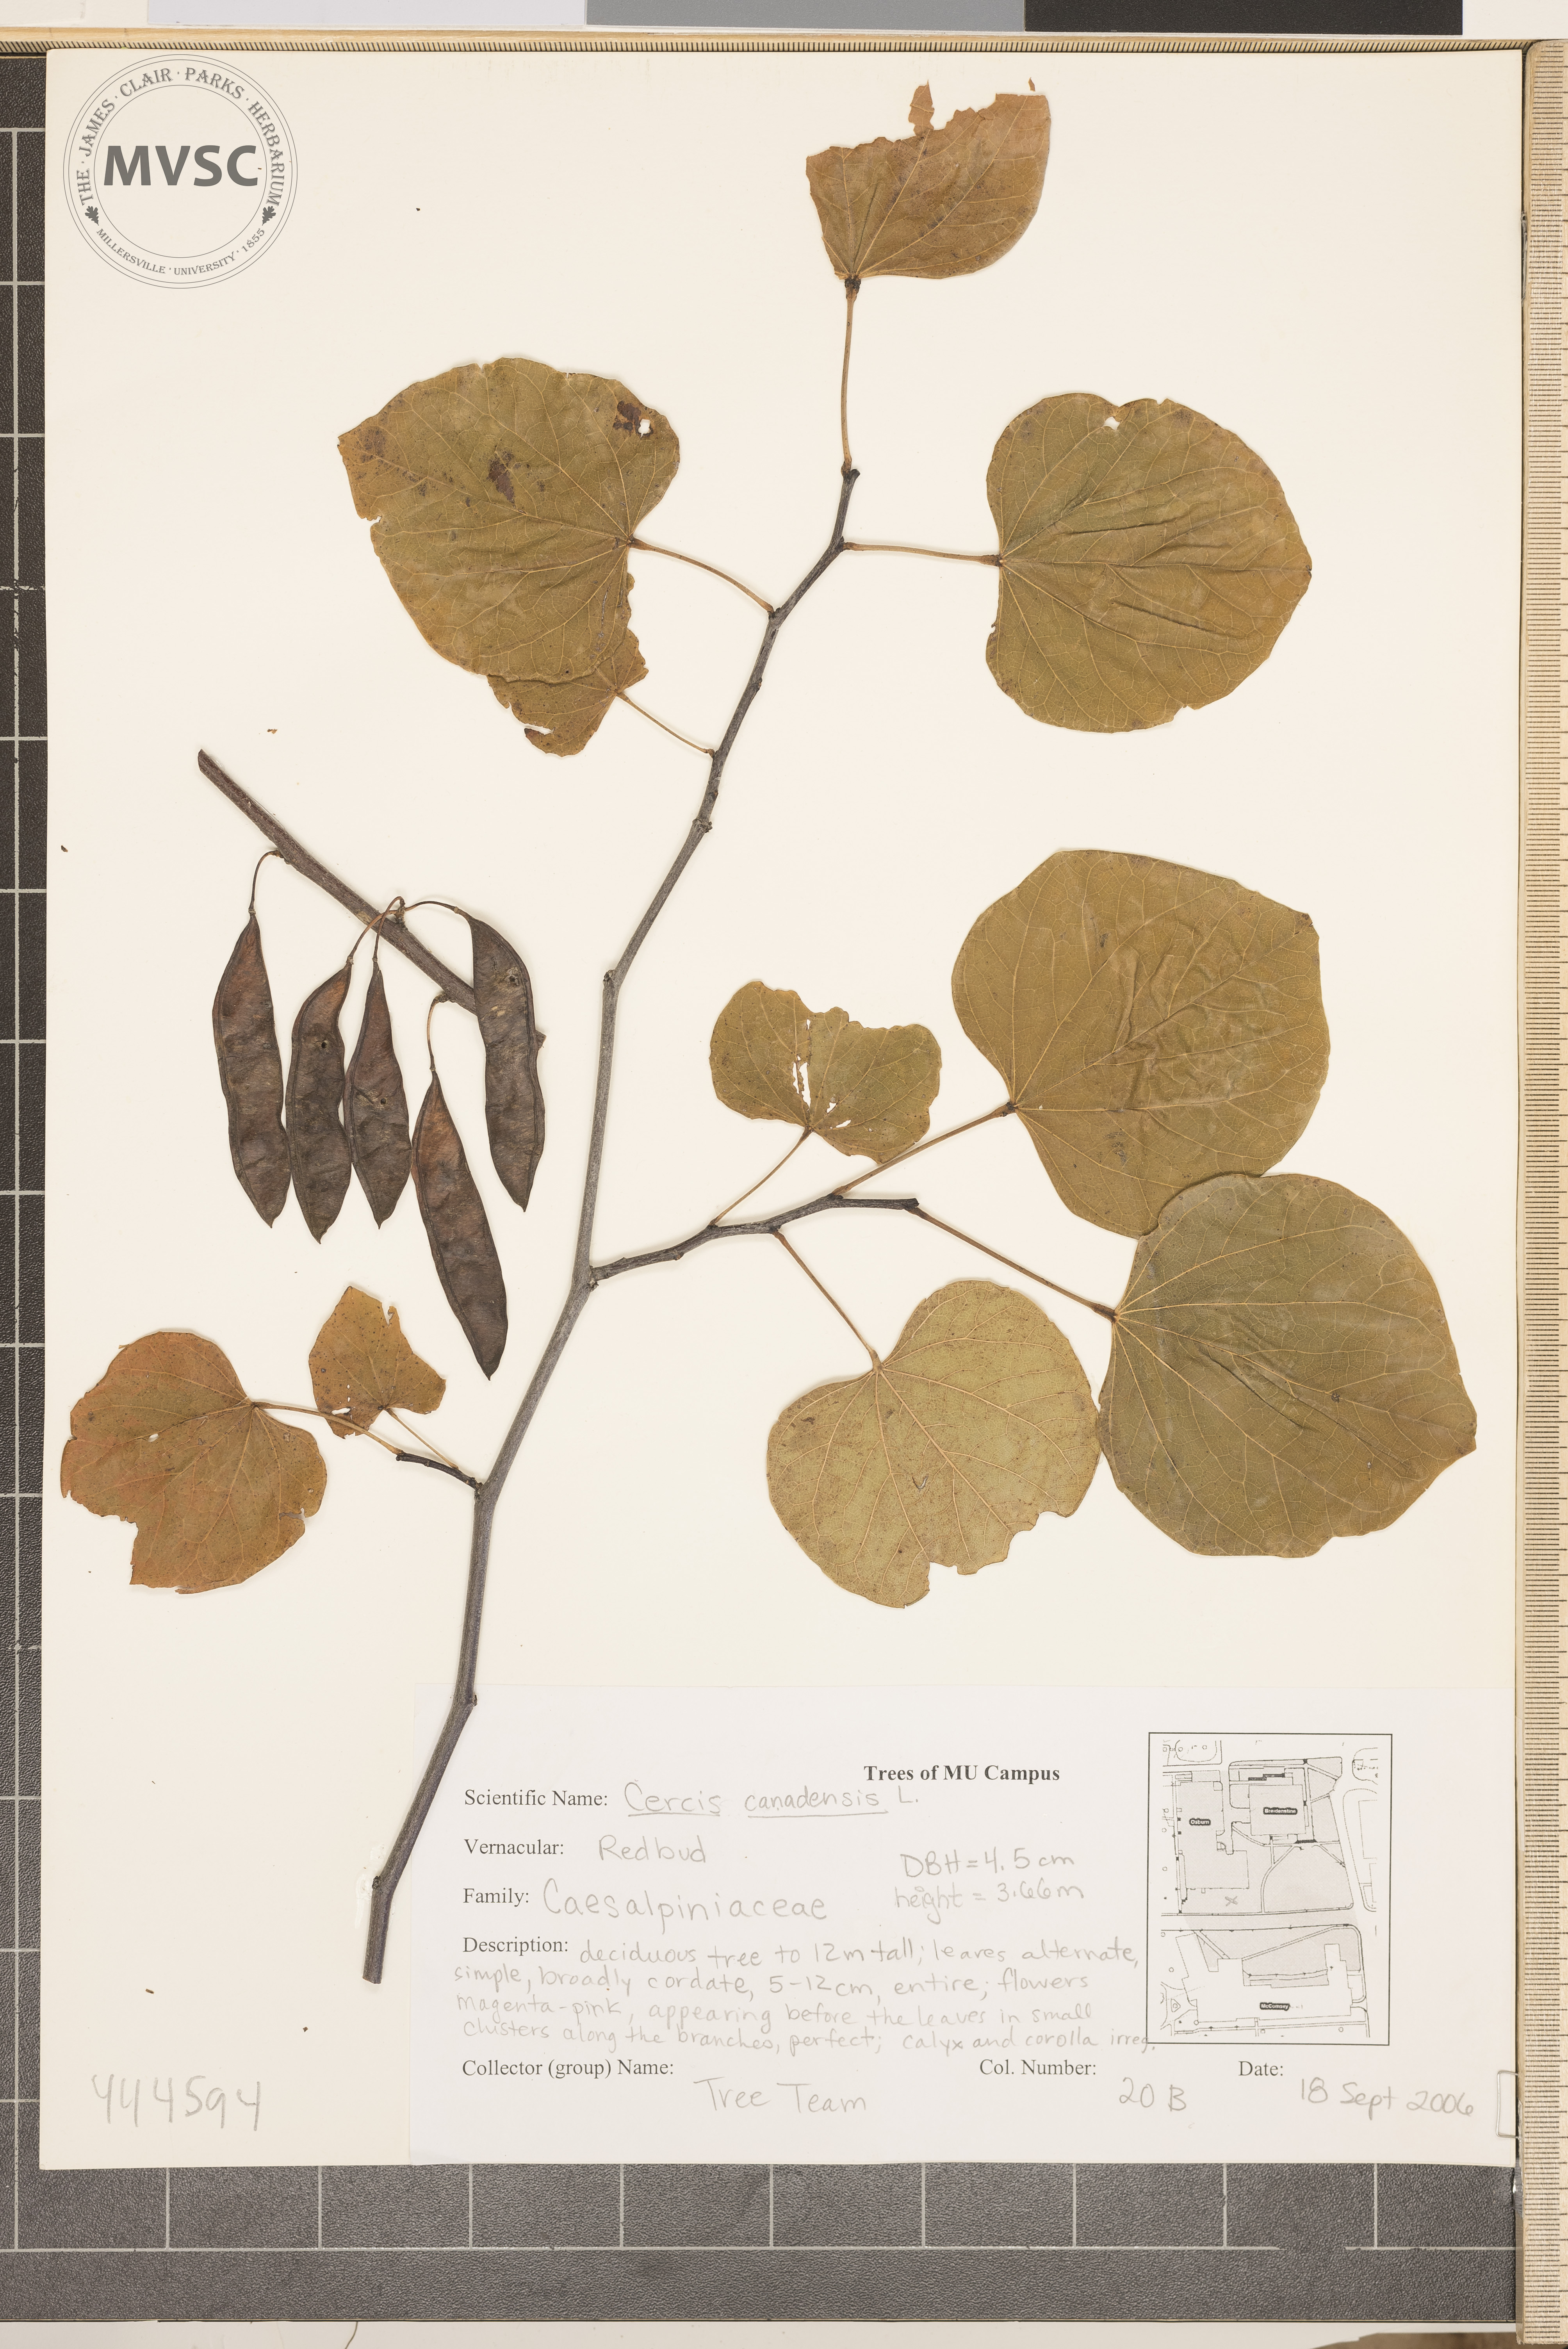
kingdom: Plantae
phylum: Tracheophyta
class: Magnoliopsida
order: Fabales
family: Fabaceae
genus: Cercis
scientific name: Cercis canadensis
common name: Redbud
